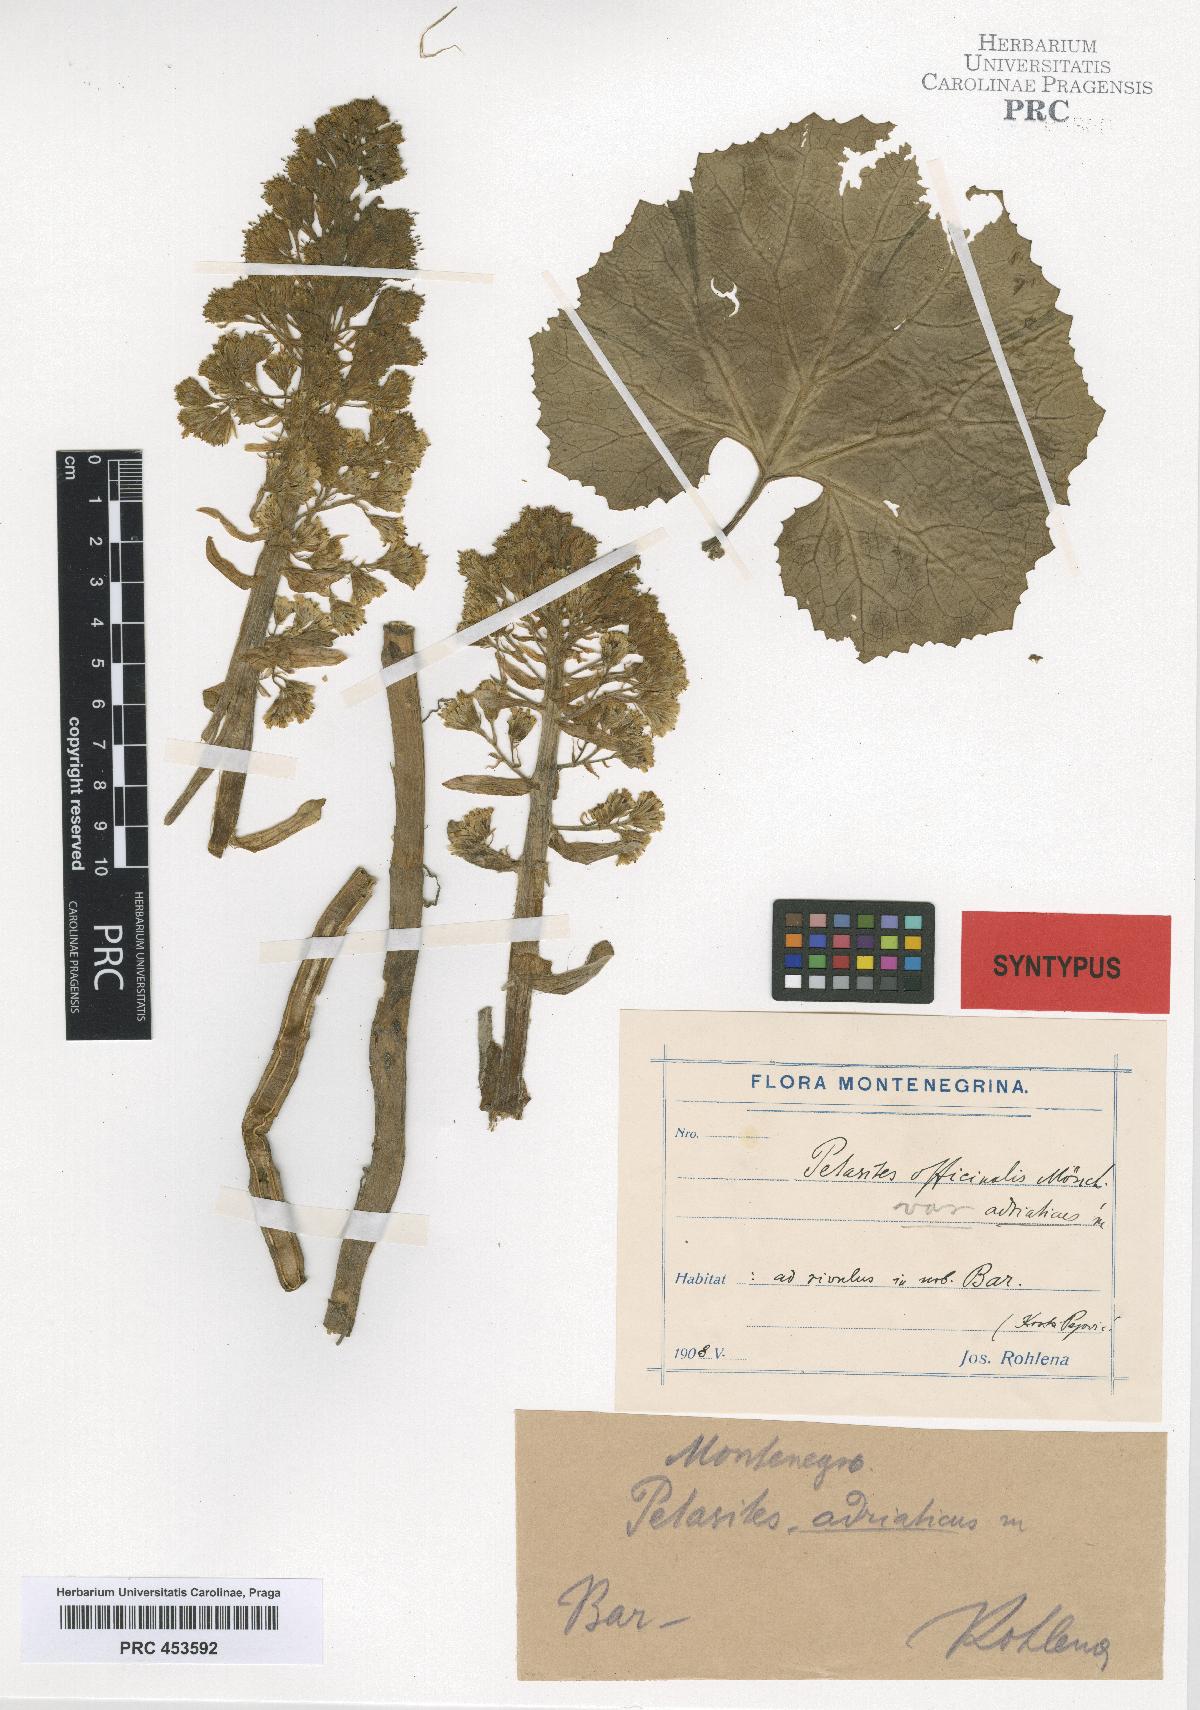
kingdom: Plantae
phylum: Tracheophyta
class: Magnoliopsida
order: Asterales
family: Asteraceae
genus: Petasites
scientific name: Petasites hybridus
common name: Butterbur
